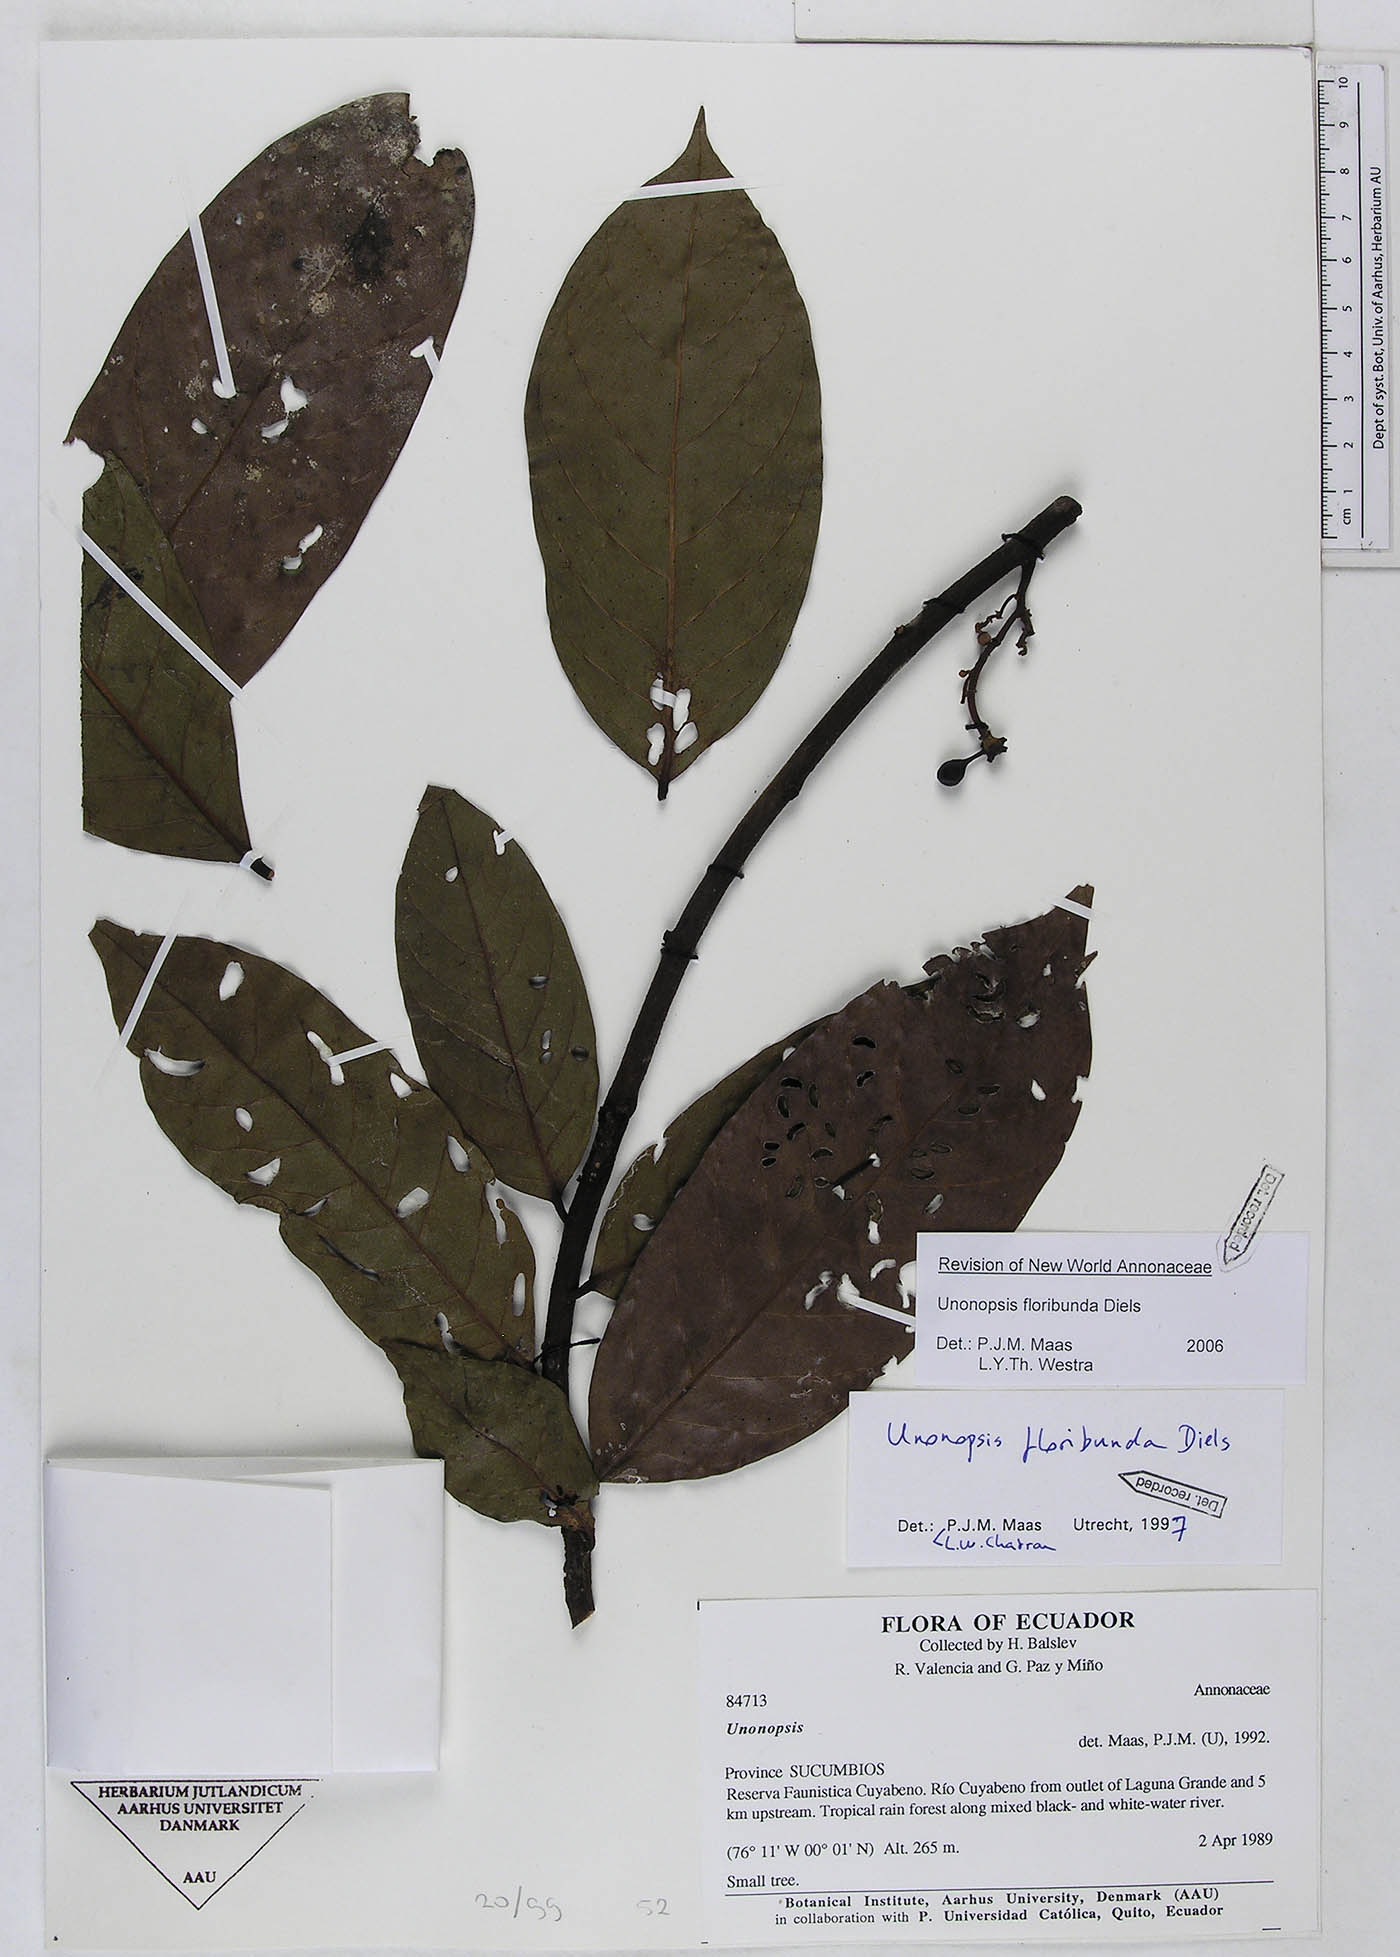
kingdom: Plantae
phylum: Tracheophyta
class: Magnoliopsida
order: Magnoliales
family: Annonaceae
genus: Unonopsis
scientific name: Unonopsis floribunda
